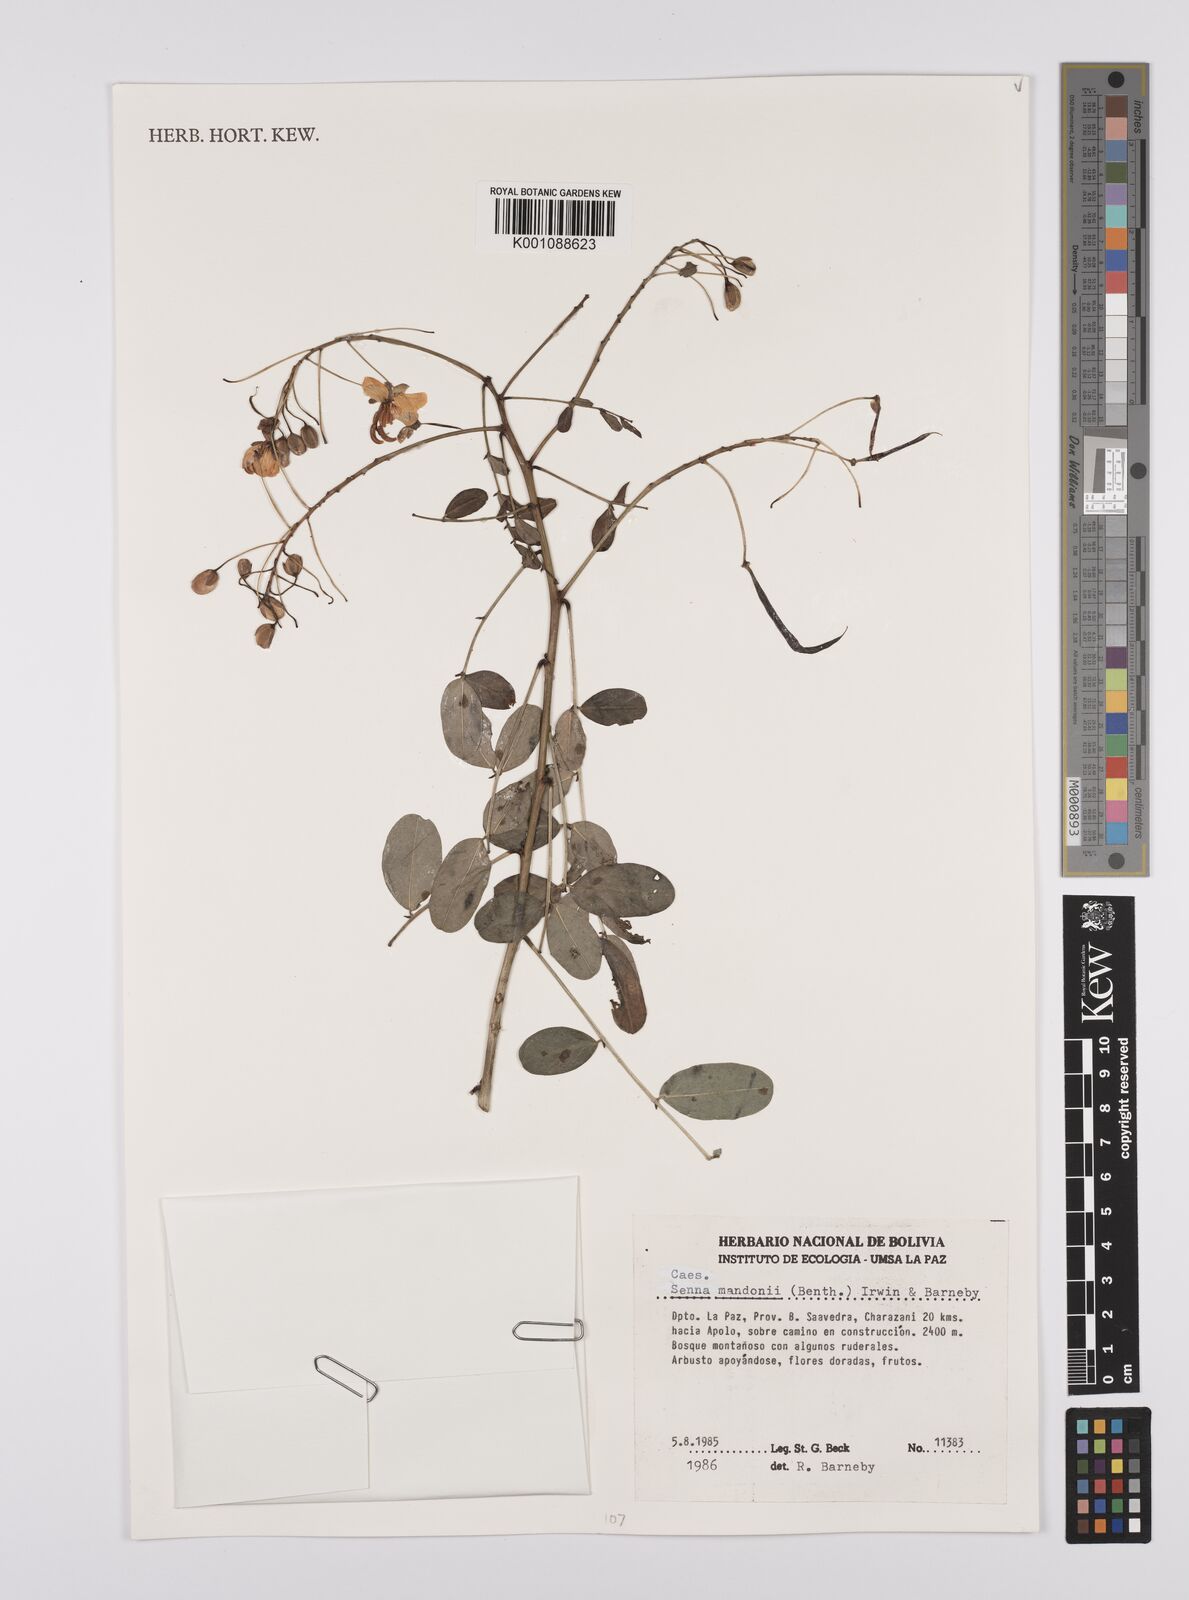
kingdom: Plantae
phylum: Tracheophyta
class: Magnoliopsida
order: Fabales
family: Fabaceae
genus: Senna
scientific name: Senna mandonii
